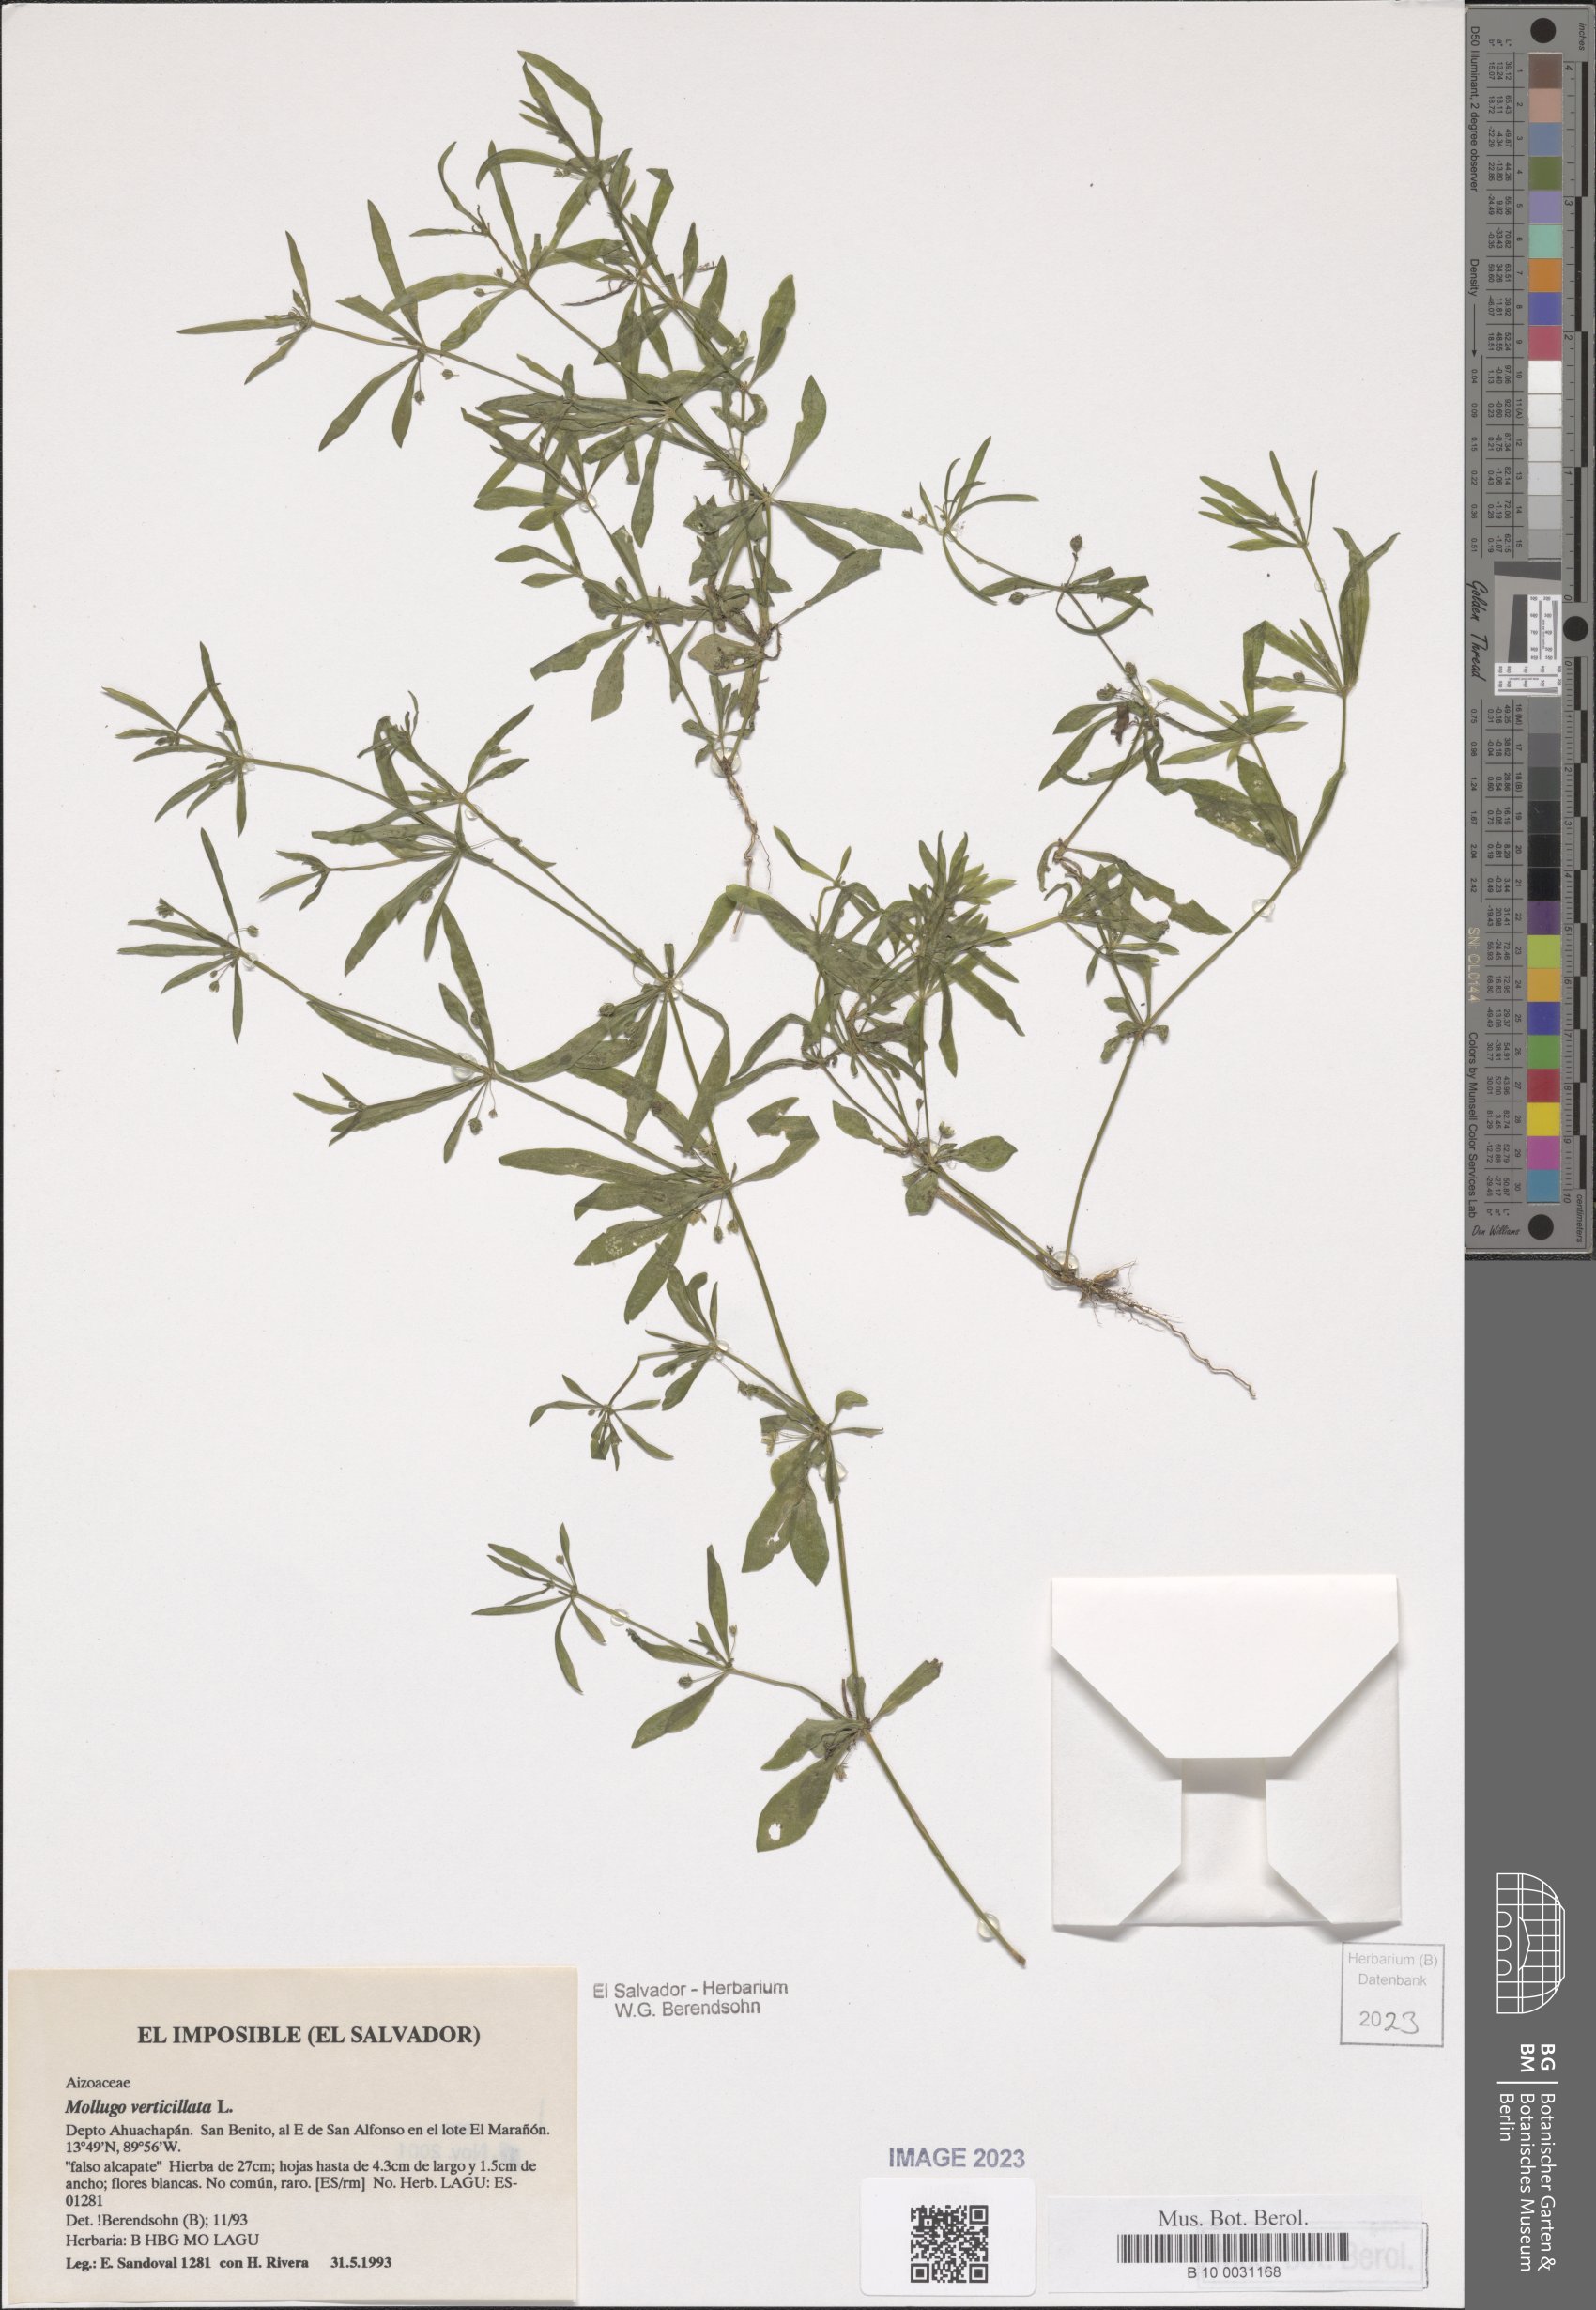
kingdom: Plantae
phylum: Tracheophyta
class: Magnoliopsida
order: Caryophyllales
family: Molluginaceae
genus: Mollugo
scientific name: Mollugo verticillata
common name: Green carpetweed
